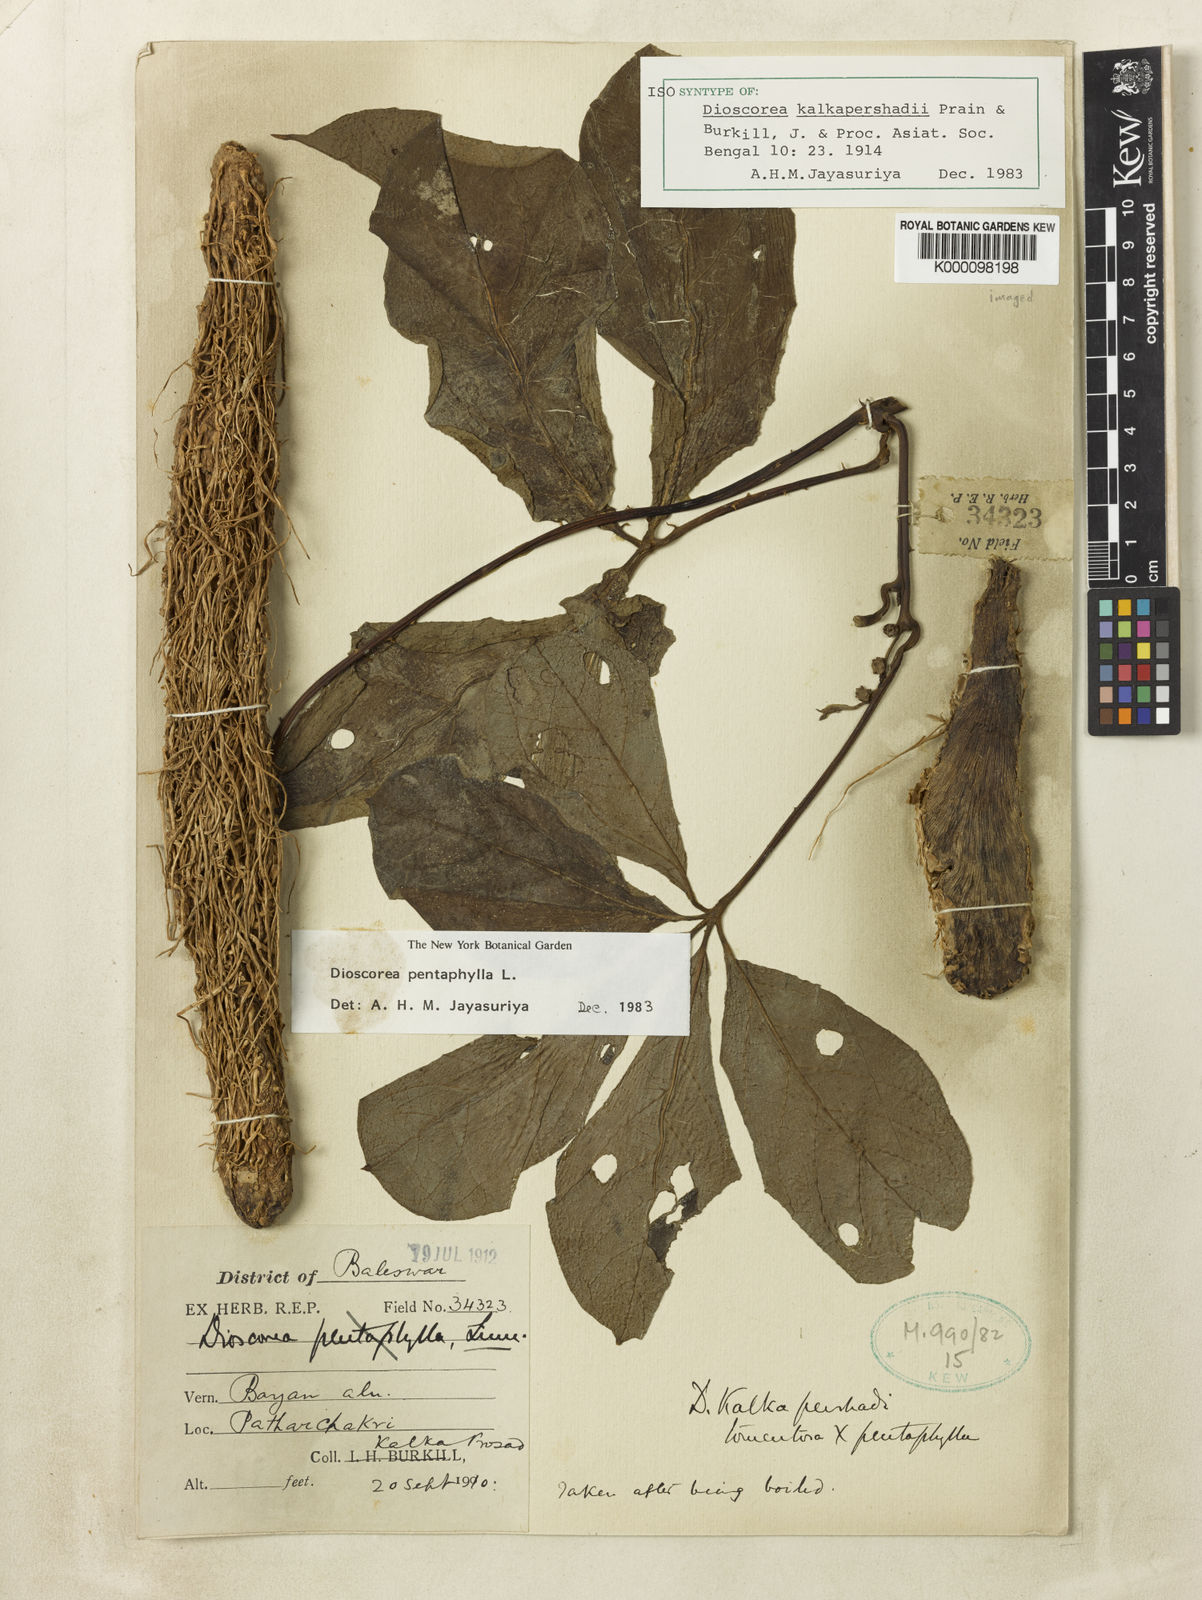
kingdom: Plantae
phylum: Tracheophyta
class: Liliopsida
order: Dioscoreales
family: Dioscoreaceae
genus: Dioscorea
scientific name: Dioscorea kalkapershadii
